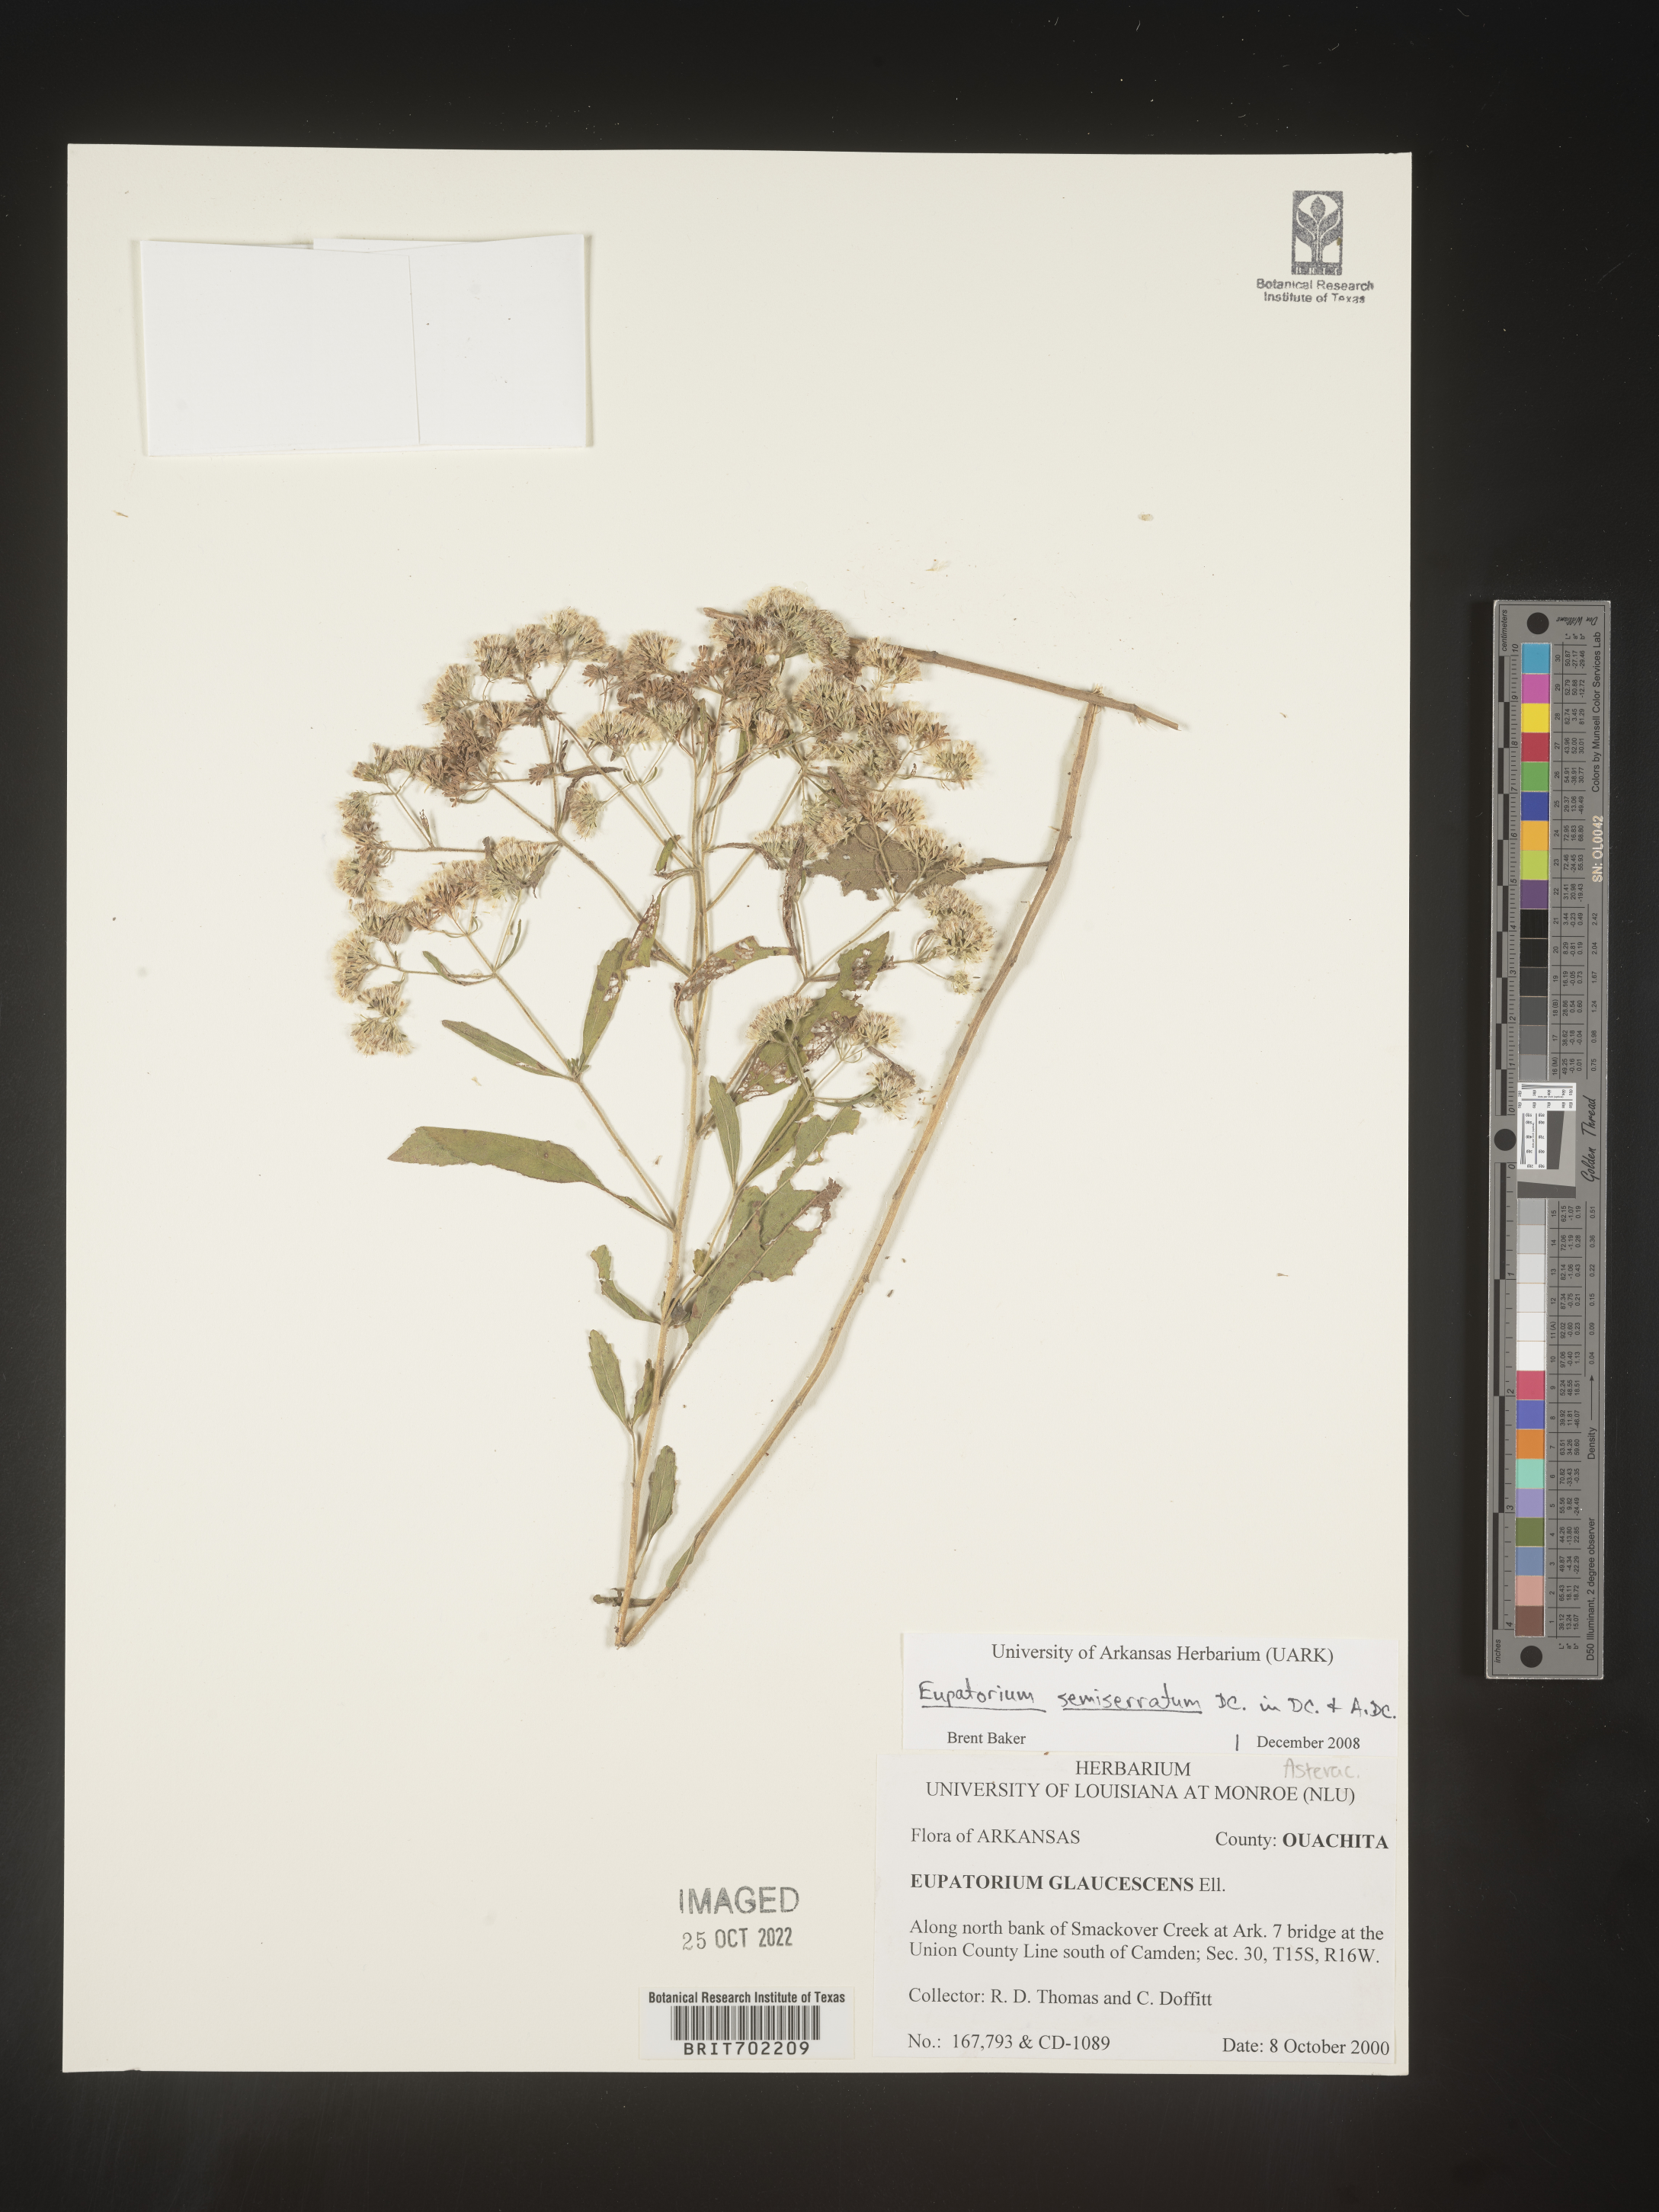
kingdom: Plantae
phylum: Tracheophyta
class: Magnoliopsida
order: Asterales
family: Asteraceae
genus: Eupatorium
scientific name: Eupatorium semiserratum
